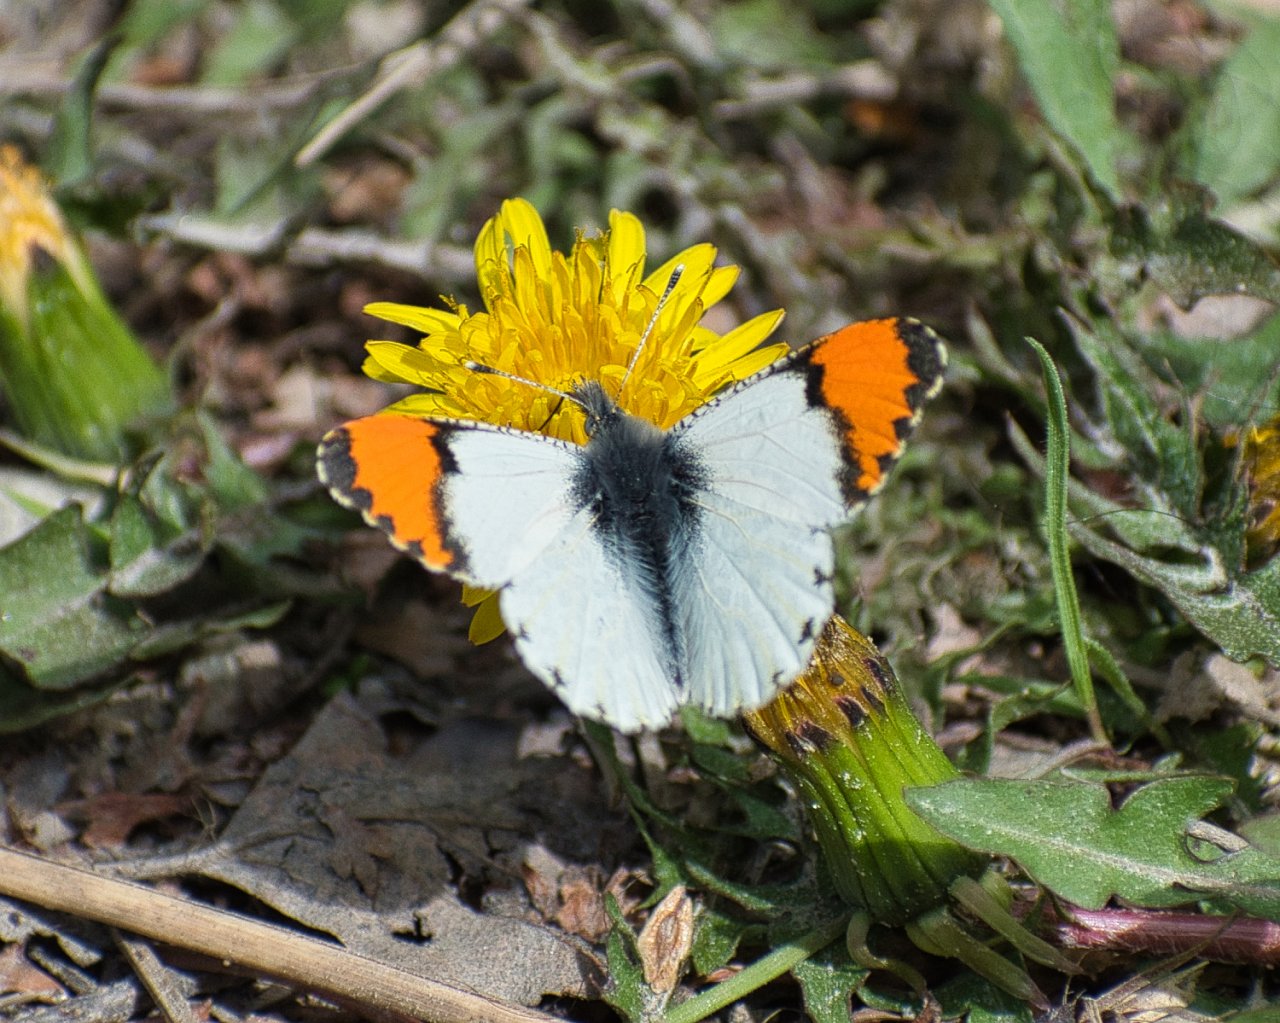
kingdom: Animalia
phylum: Arthropoda
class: Insecta
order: Lepidoptera
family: Pieridae
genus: Anthocharis
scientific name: Anthocharis sara
